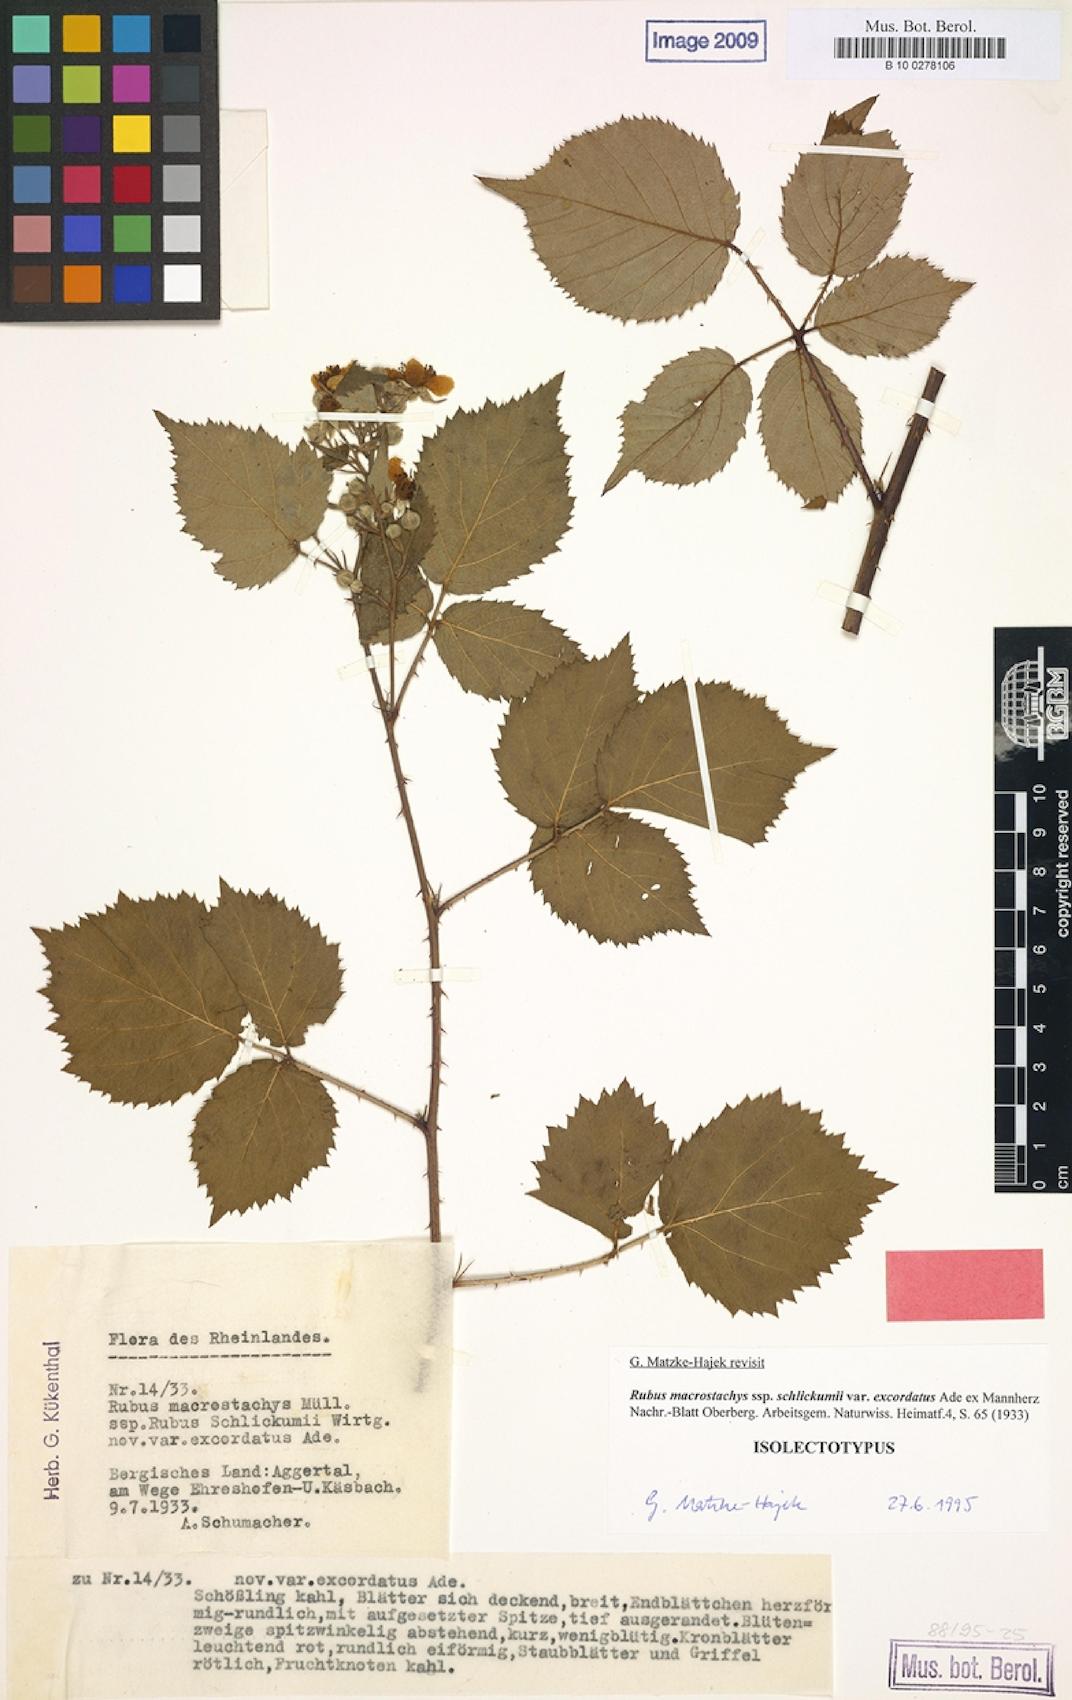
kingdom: Plantae
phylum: Tracheophyta
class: Magnoliopsida
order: Rosales
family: Rosaceae
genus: Rubus
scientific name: Rubus macrostachys
